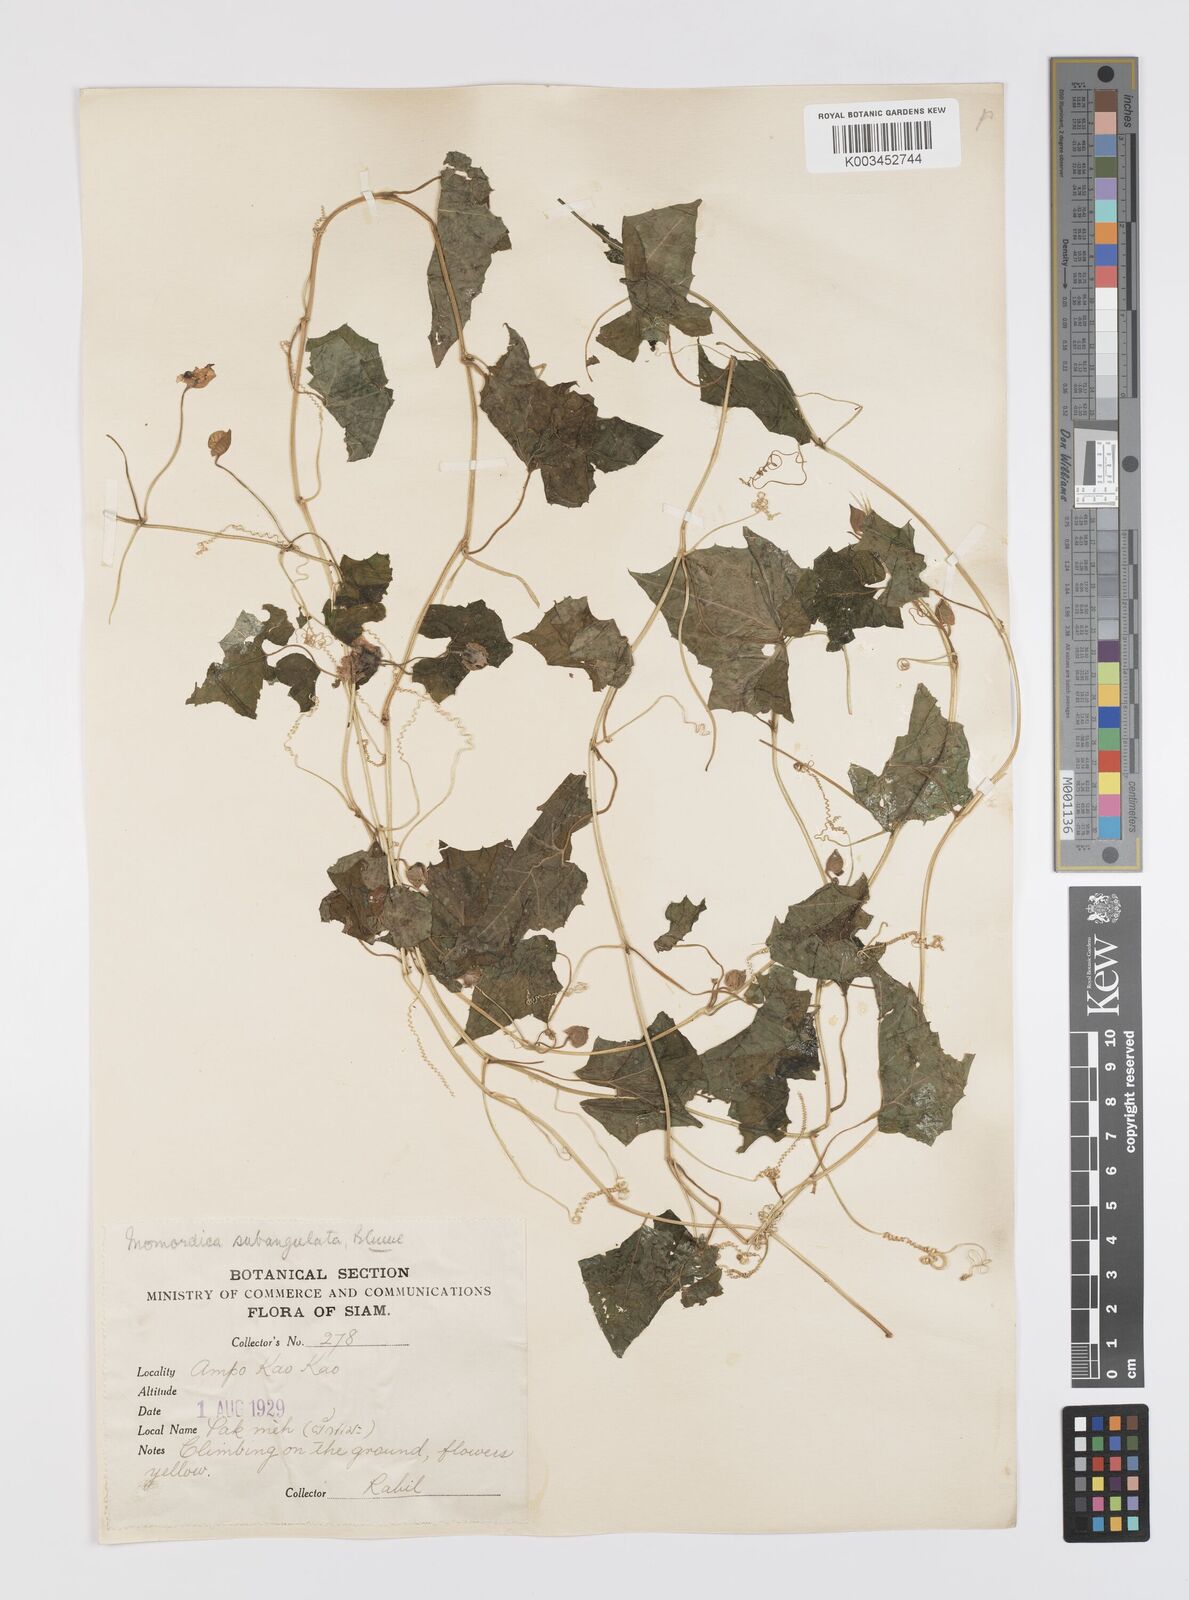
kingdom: Plantae
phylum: Tracheophyta
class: Magnoliopsida
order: Cucurbitales
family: Cucurbitaceae
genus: Momordica
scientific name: Momordica subangulata
